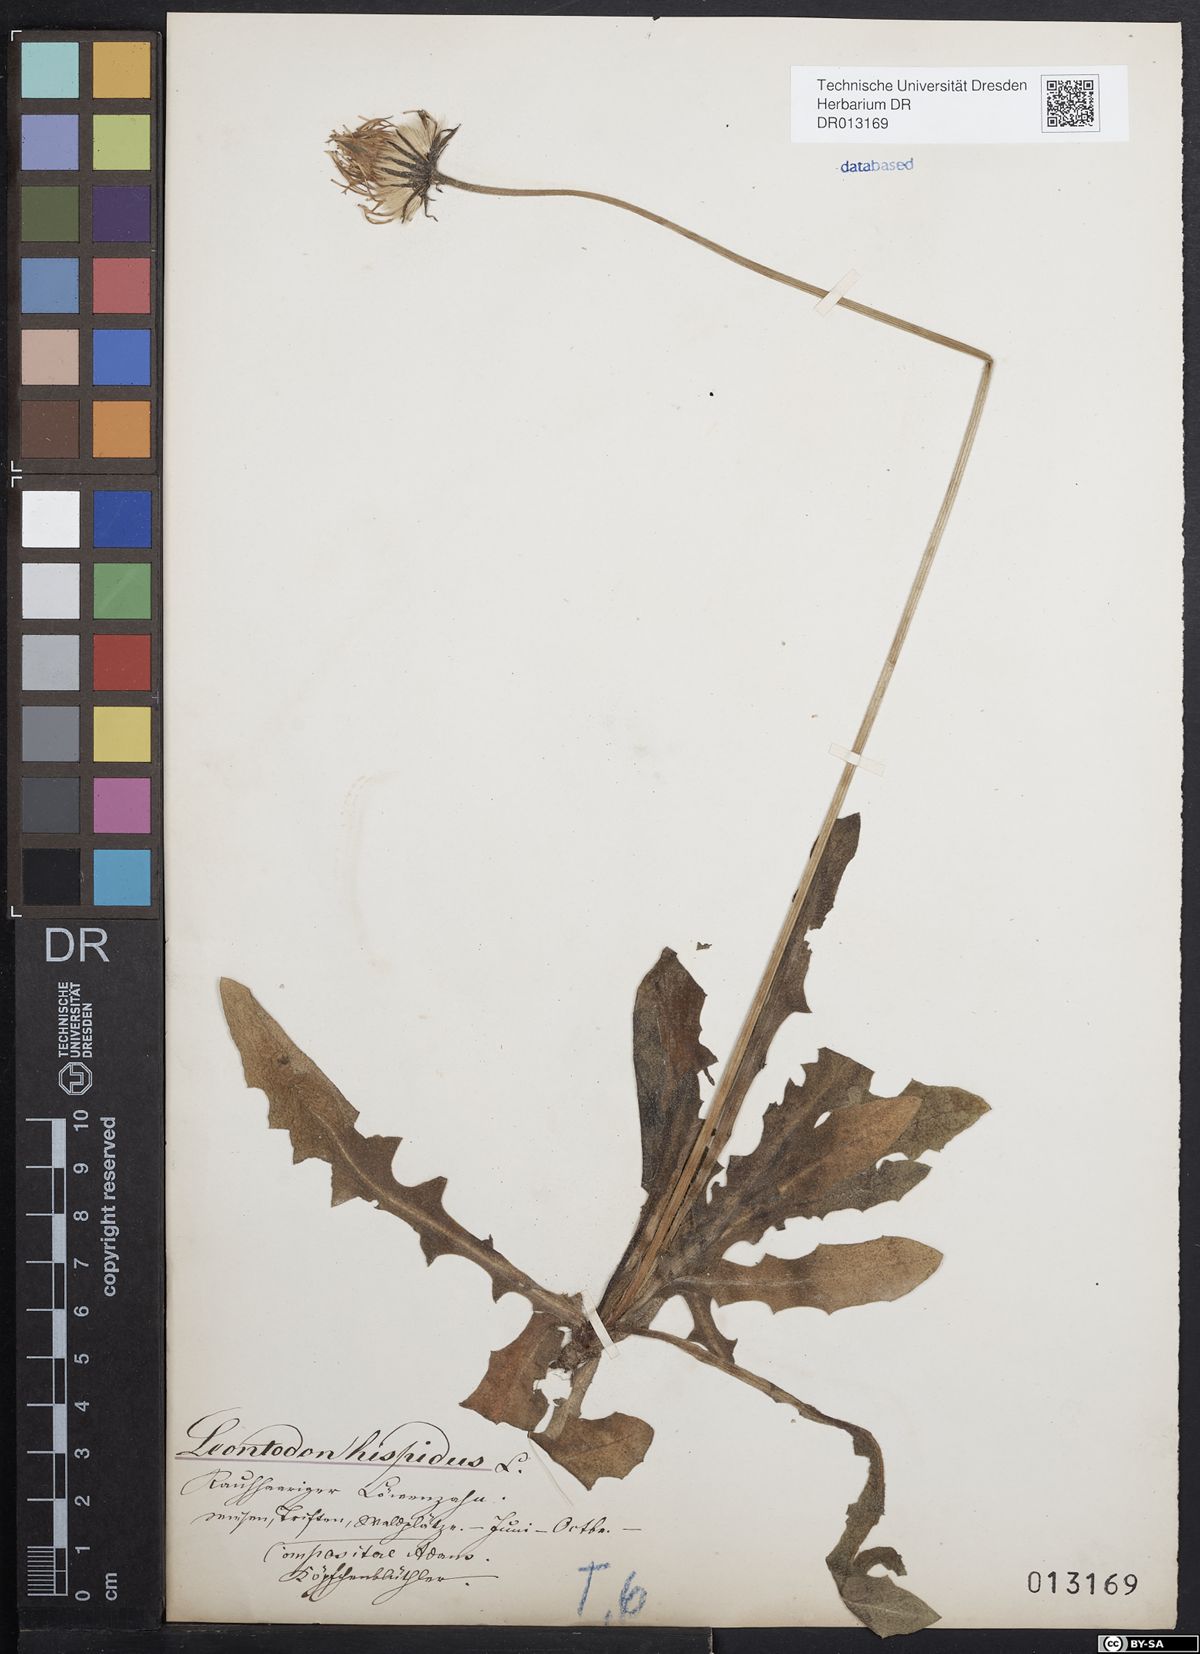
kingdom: Plantae
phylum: Tracheophyta
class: Magnoliopsida
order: Asterales
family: Asteraceae
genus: Leontodon
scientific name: Leontodon hispidus
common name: Rough hawkbit
